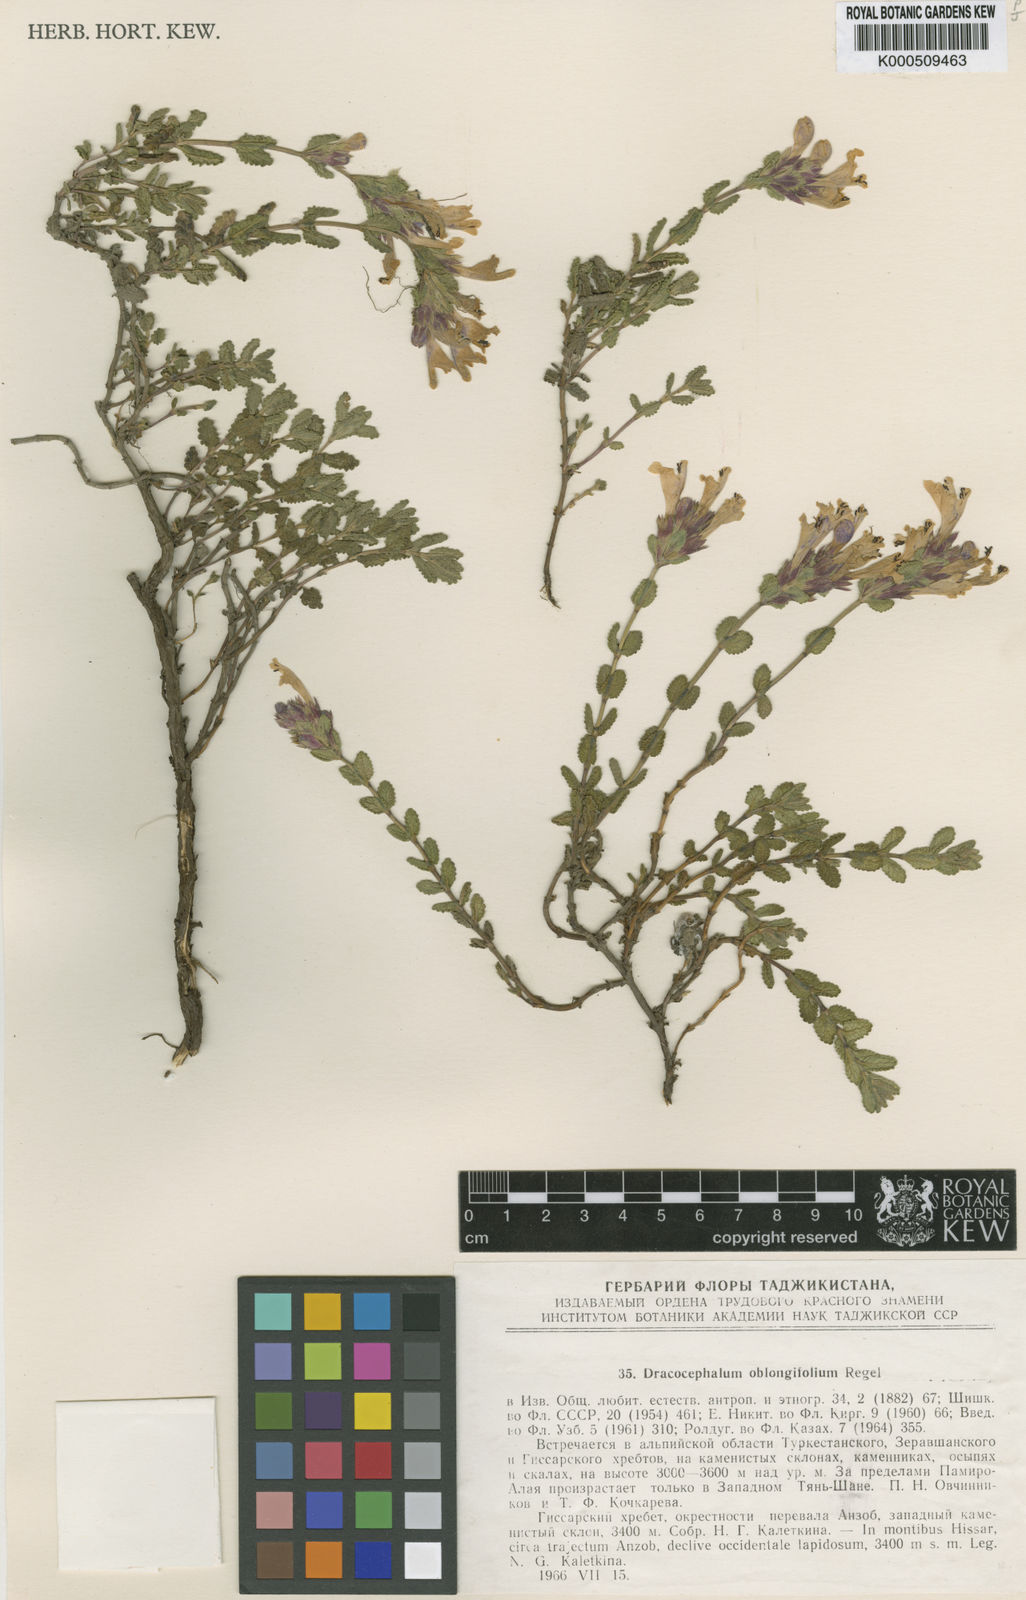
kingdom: Plantae
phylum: Tracheophyta
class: Magnoliopsida
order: Lamiales
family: Lamiaceae
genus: Dracocephalum
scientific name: Dracocephalum oblongifolium
